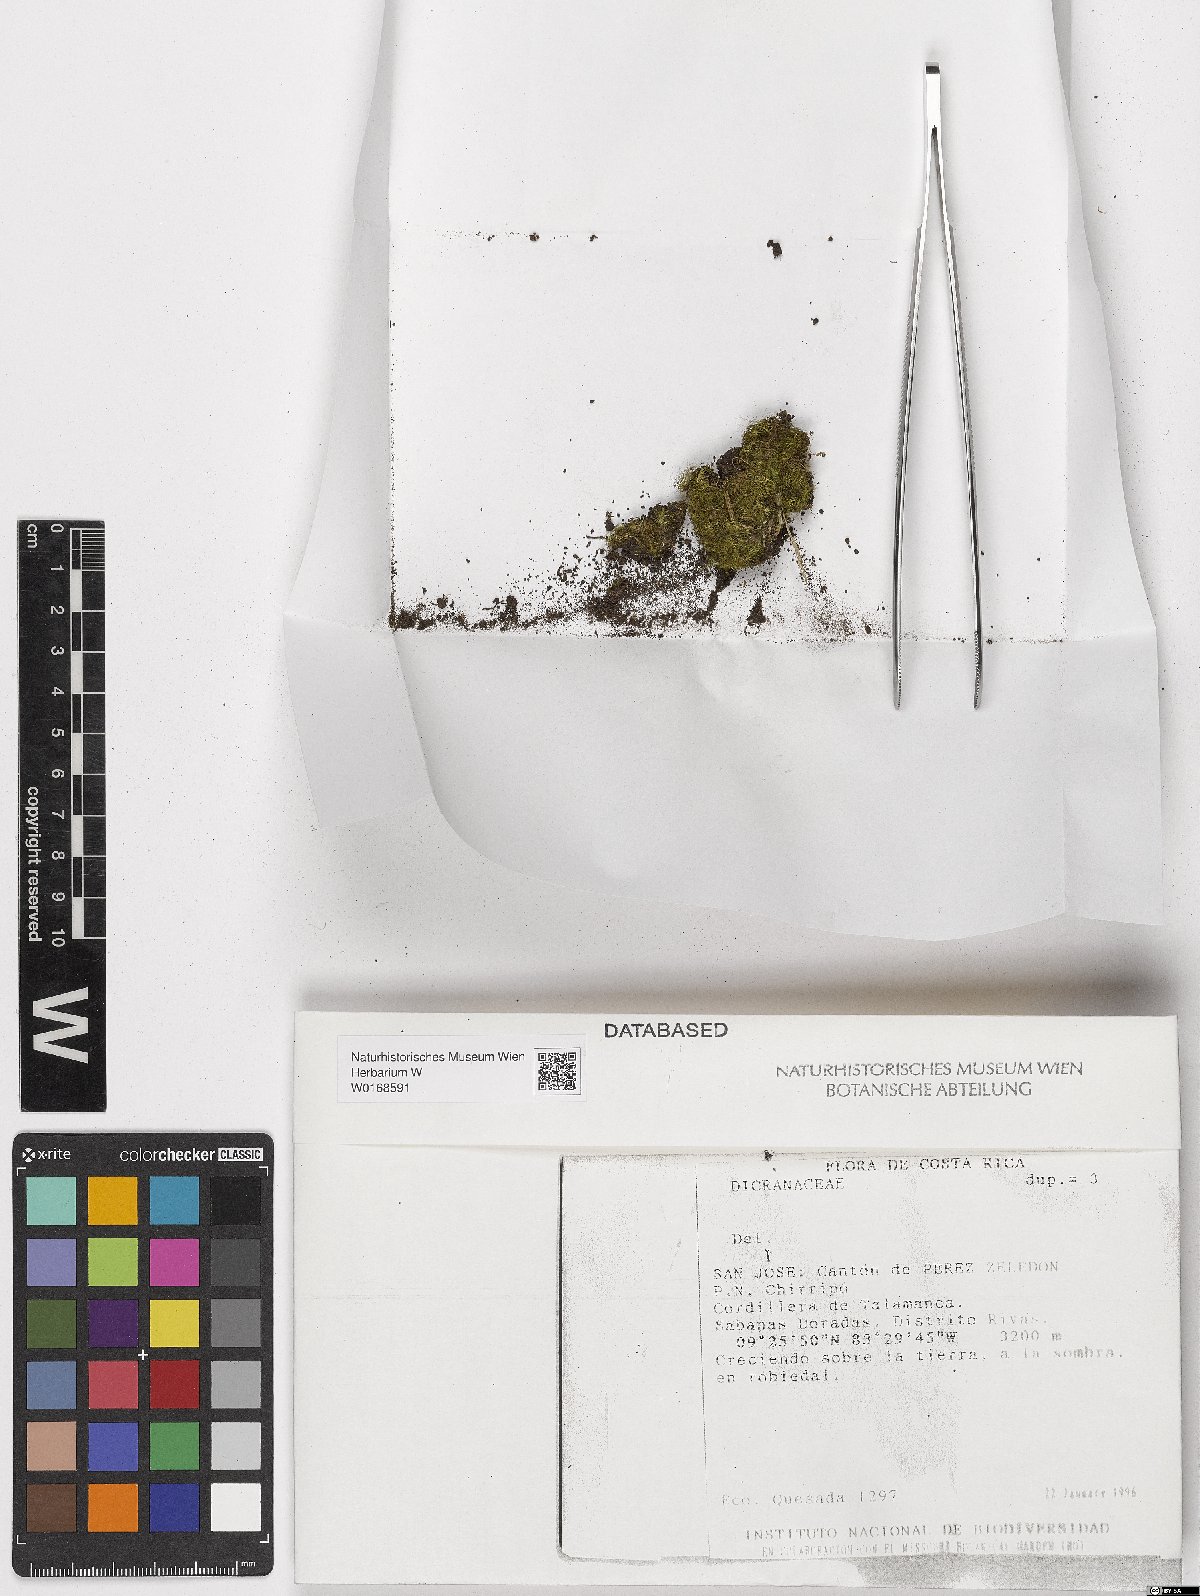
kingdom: Plantae
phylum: Bryophyta
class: Bryopsida
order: Dicranales
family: Dicranaceae
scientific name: Dicranaceae
